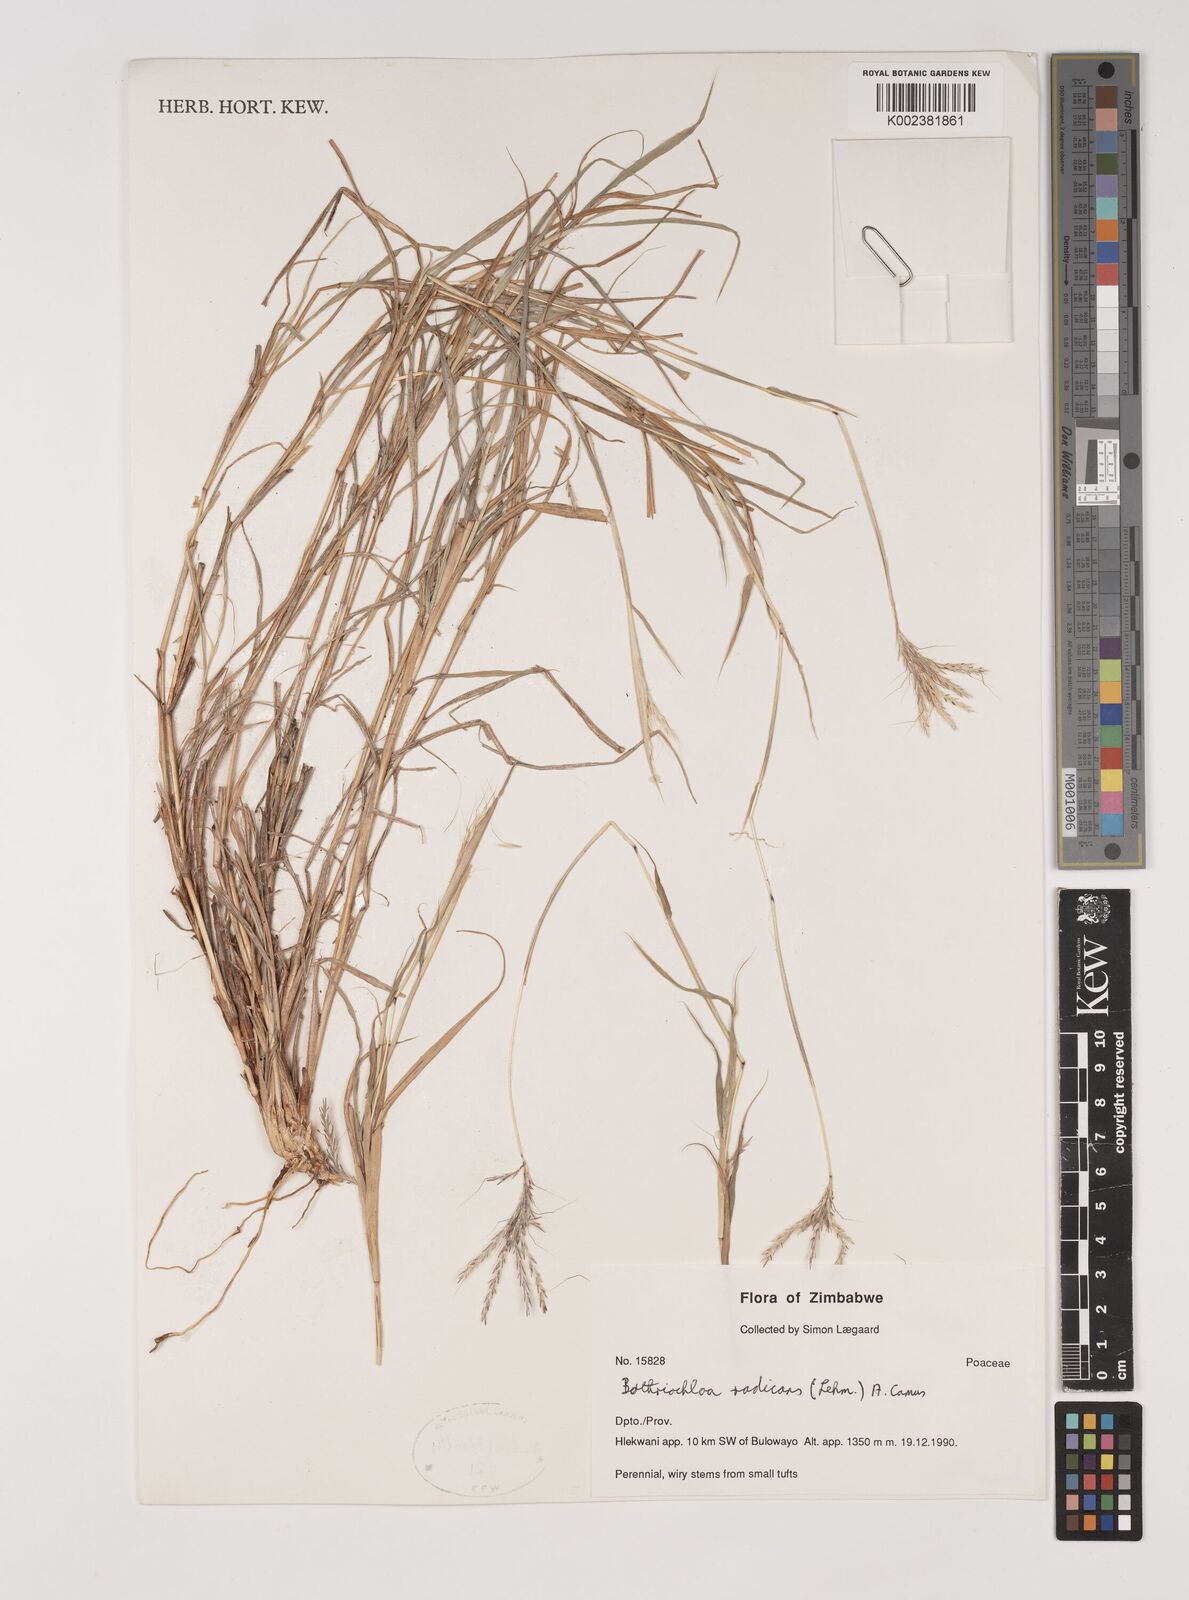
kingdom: Plantae
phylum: Tracheophyta
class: Liliopsida
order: Poales
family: Poaceae
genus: Bothriochloa
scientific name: Bothriochloa radicans
